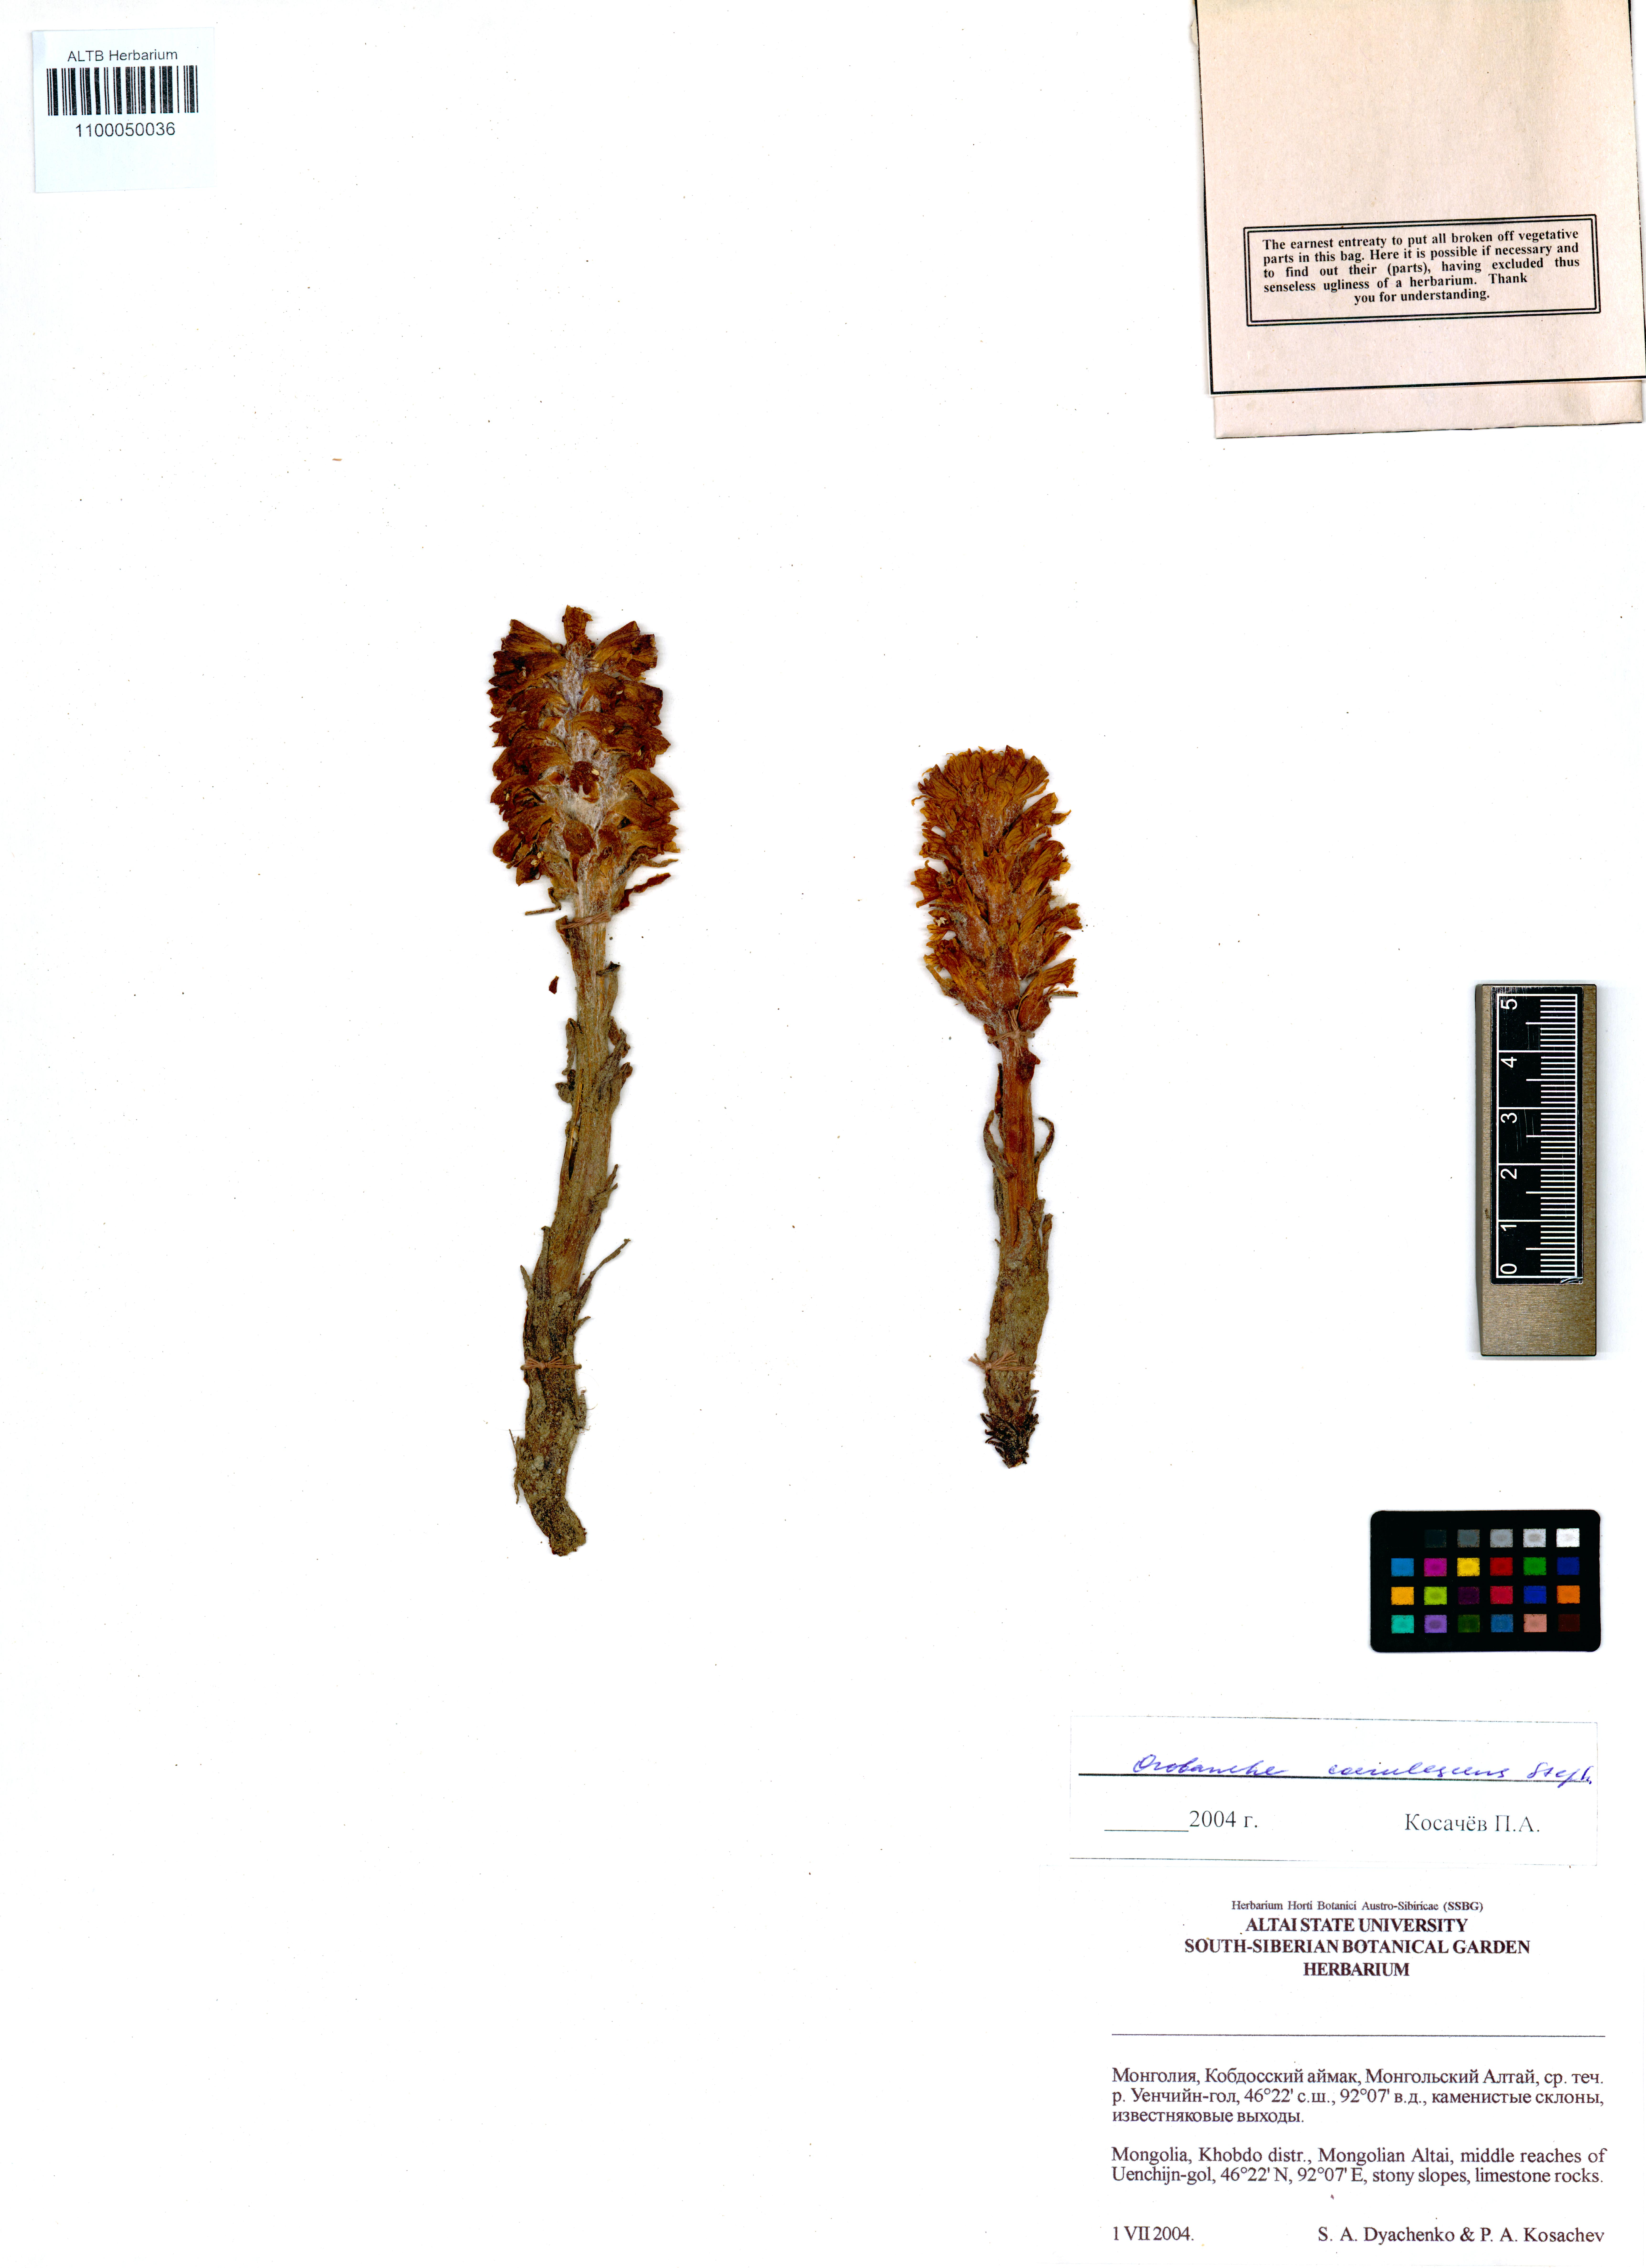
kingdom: Plantae
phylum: Tracheophyta
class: Magnoliopsida
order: Lamiales
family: Orobanchaceae
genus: Orobanche
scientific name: Orobanche coerulescens
